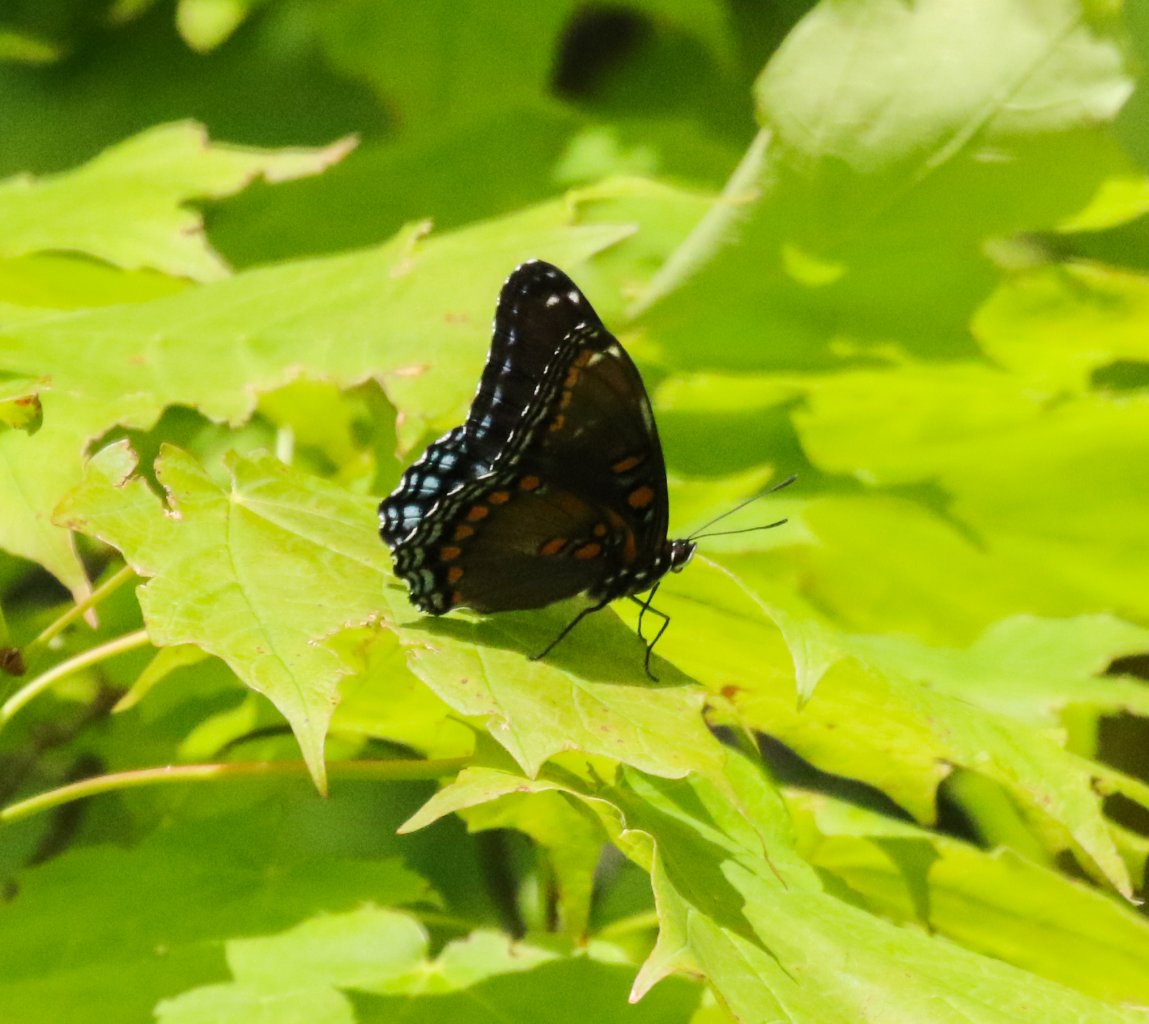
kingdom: Animalia
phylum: Arthropoda
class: Insecta
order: Lepidoptera
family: Nymphalidae
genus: Limenitis
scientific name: Limenitis astyanax
